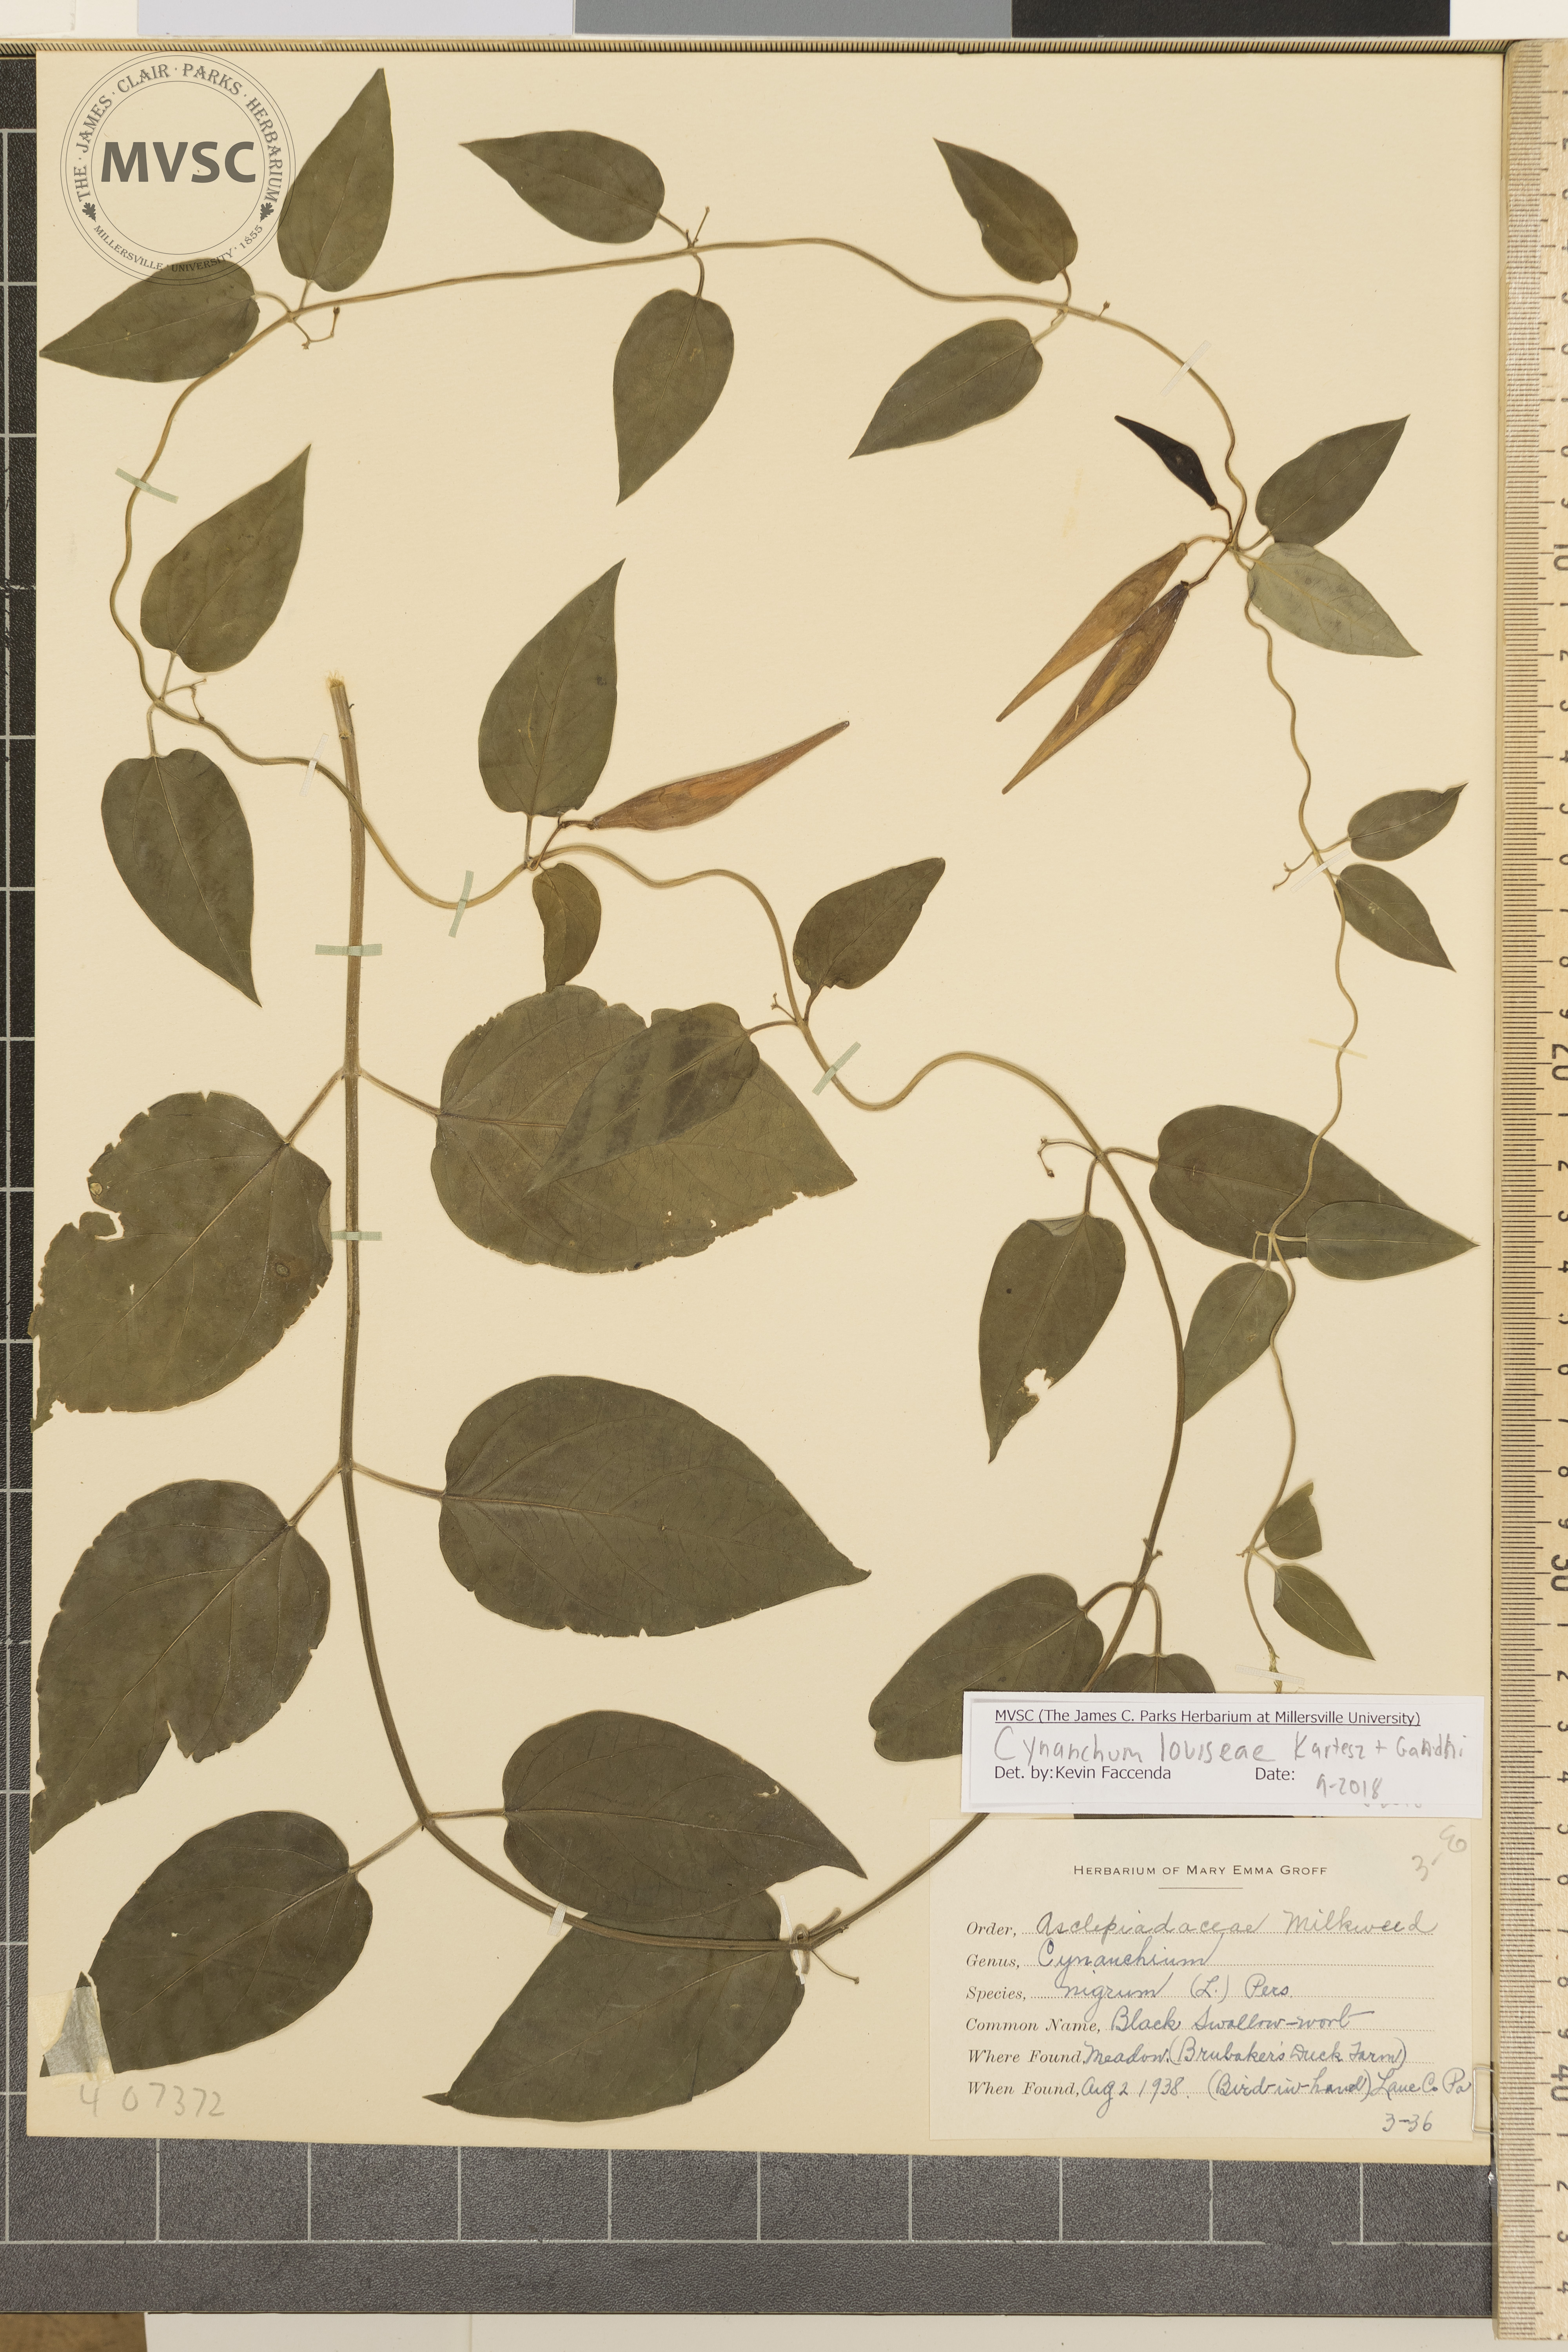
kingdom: Plantae
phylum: Tracheophyta
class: Magnoliopsida
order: Gentianales
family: Apocynaceae
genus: Vincetoxicum
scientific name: Vincetoxicum nigrum
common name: Black swallow-wort
